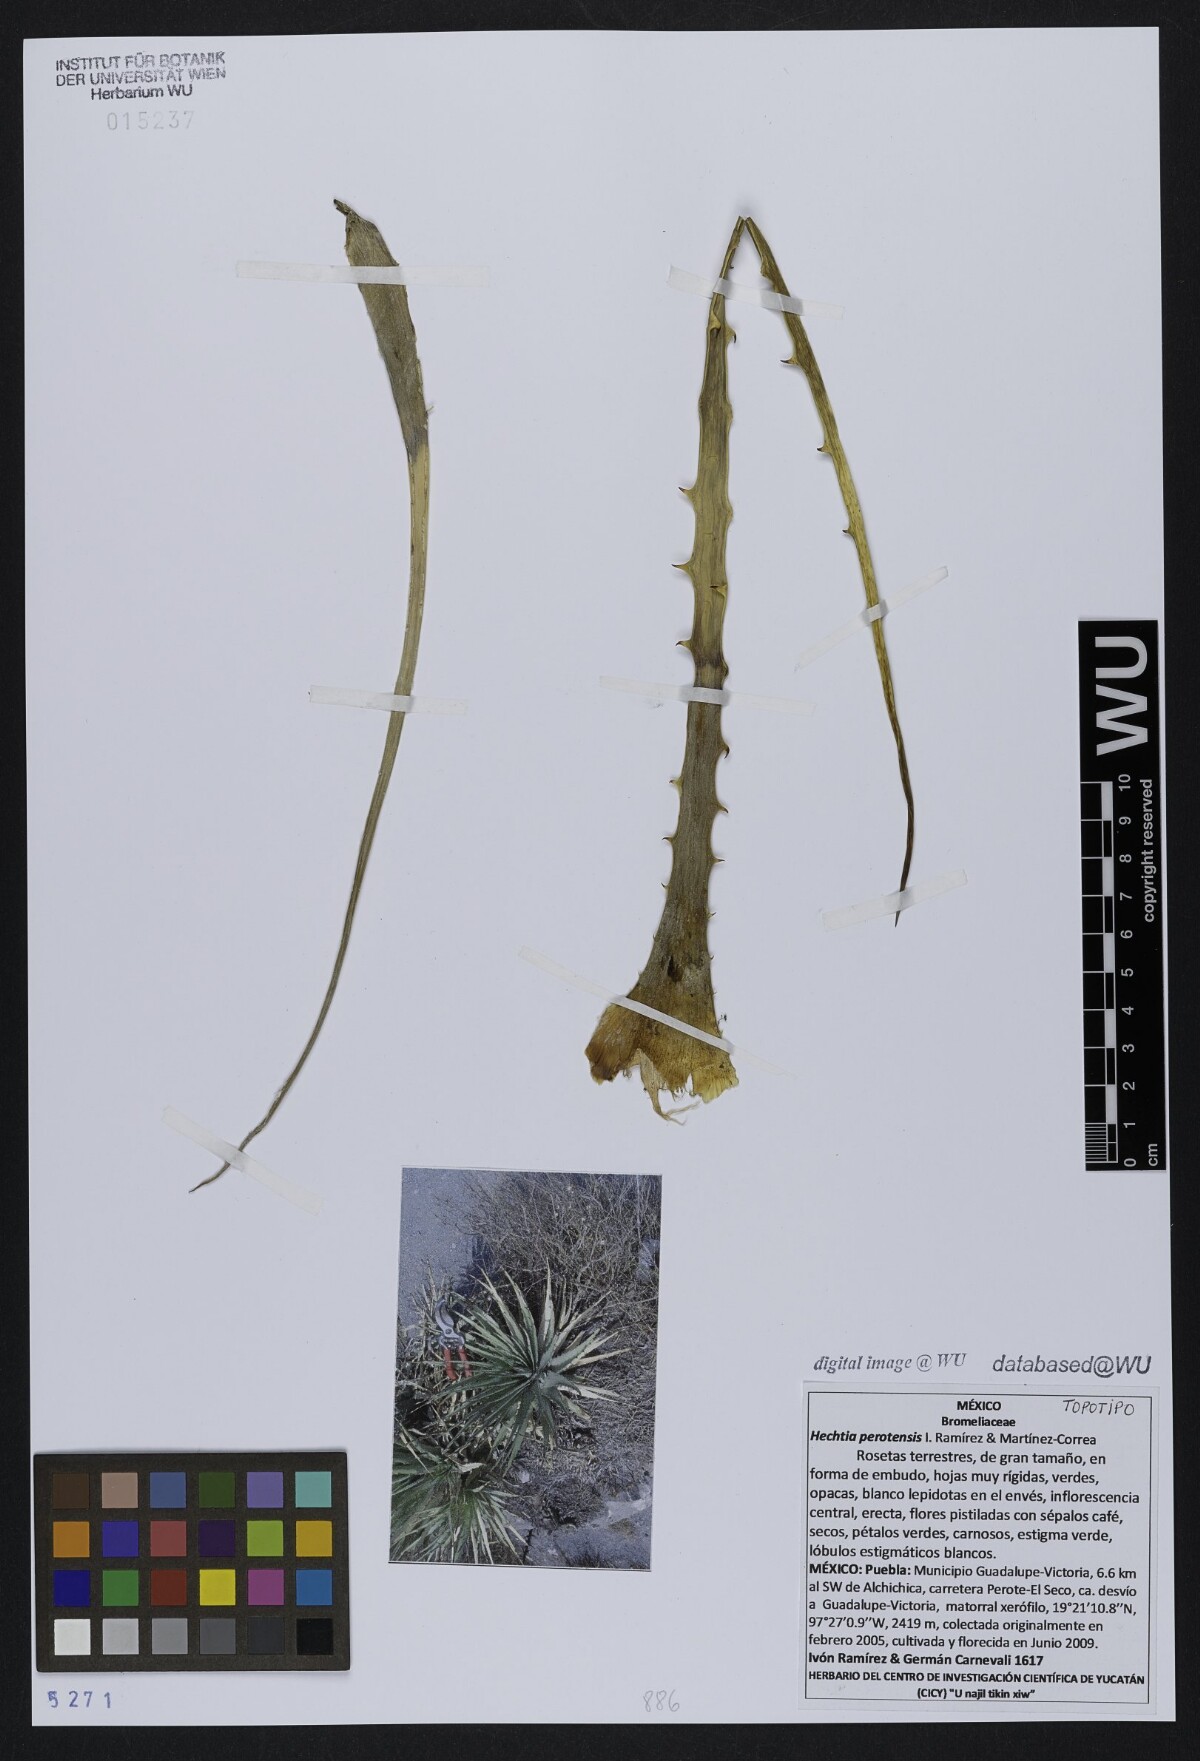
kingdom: Plantae
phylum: Tracheophyta
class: Liliopsida
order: Poales
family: Bromeliaceae
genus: Hechtia
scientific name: Hechtia perotensis
